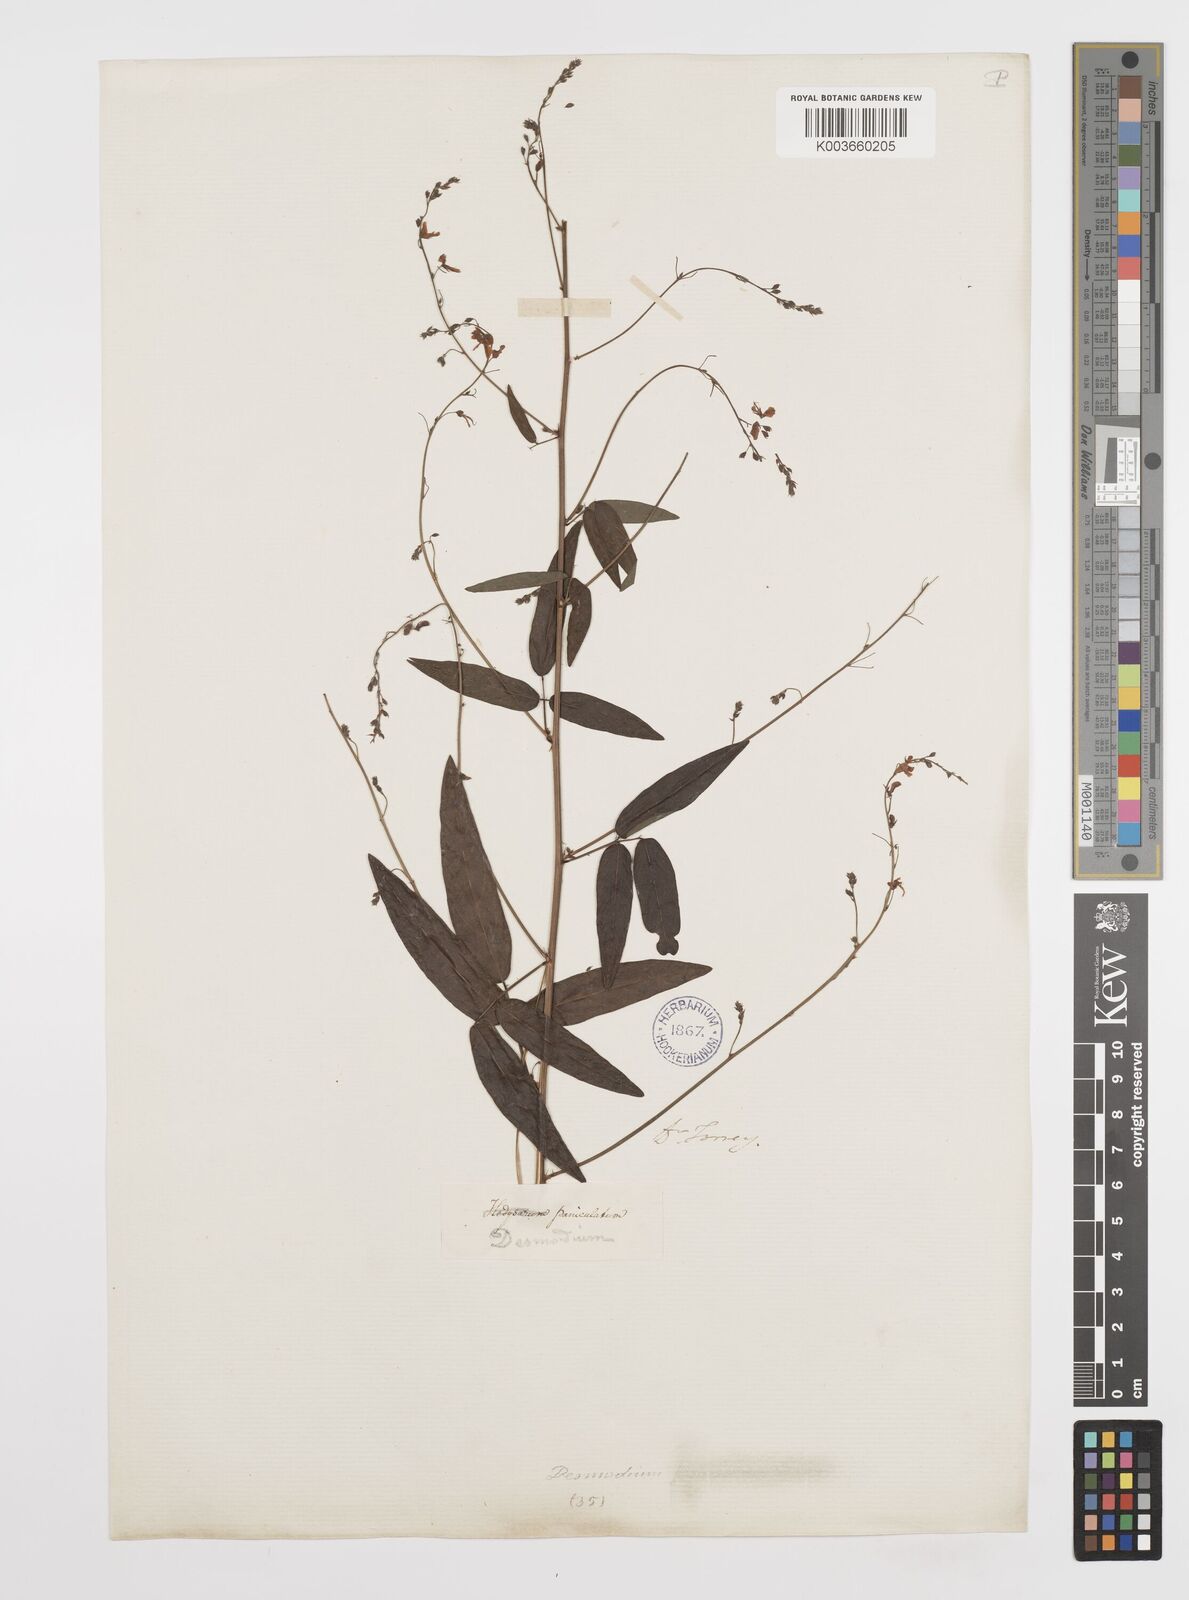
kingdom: Plantae
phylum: Tracheophyta
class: Magnoliopsida
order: Fabales
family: Fabaceae
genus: Desmodium
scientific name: Desmodium paniculatum
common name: Panicled tick-clover
